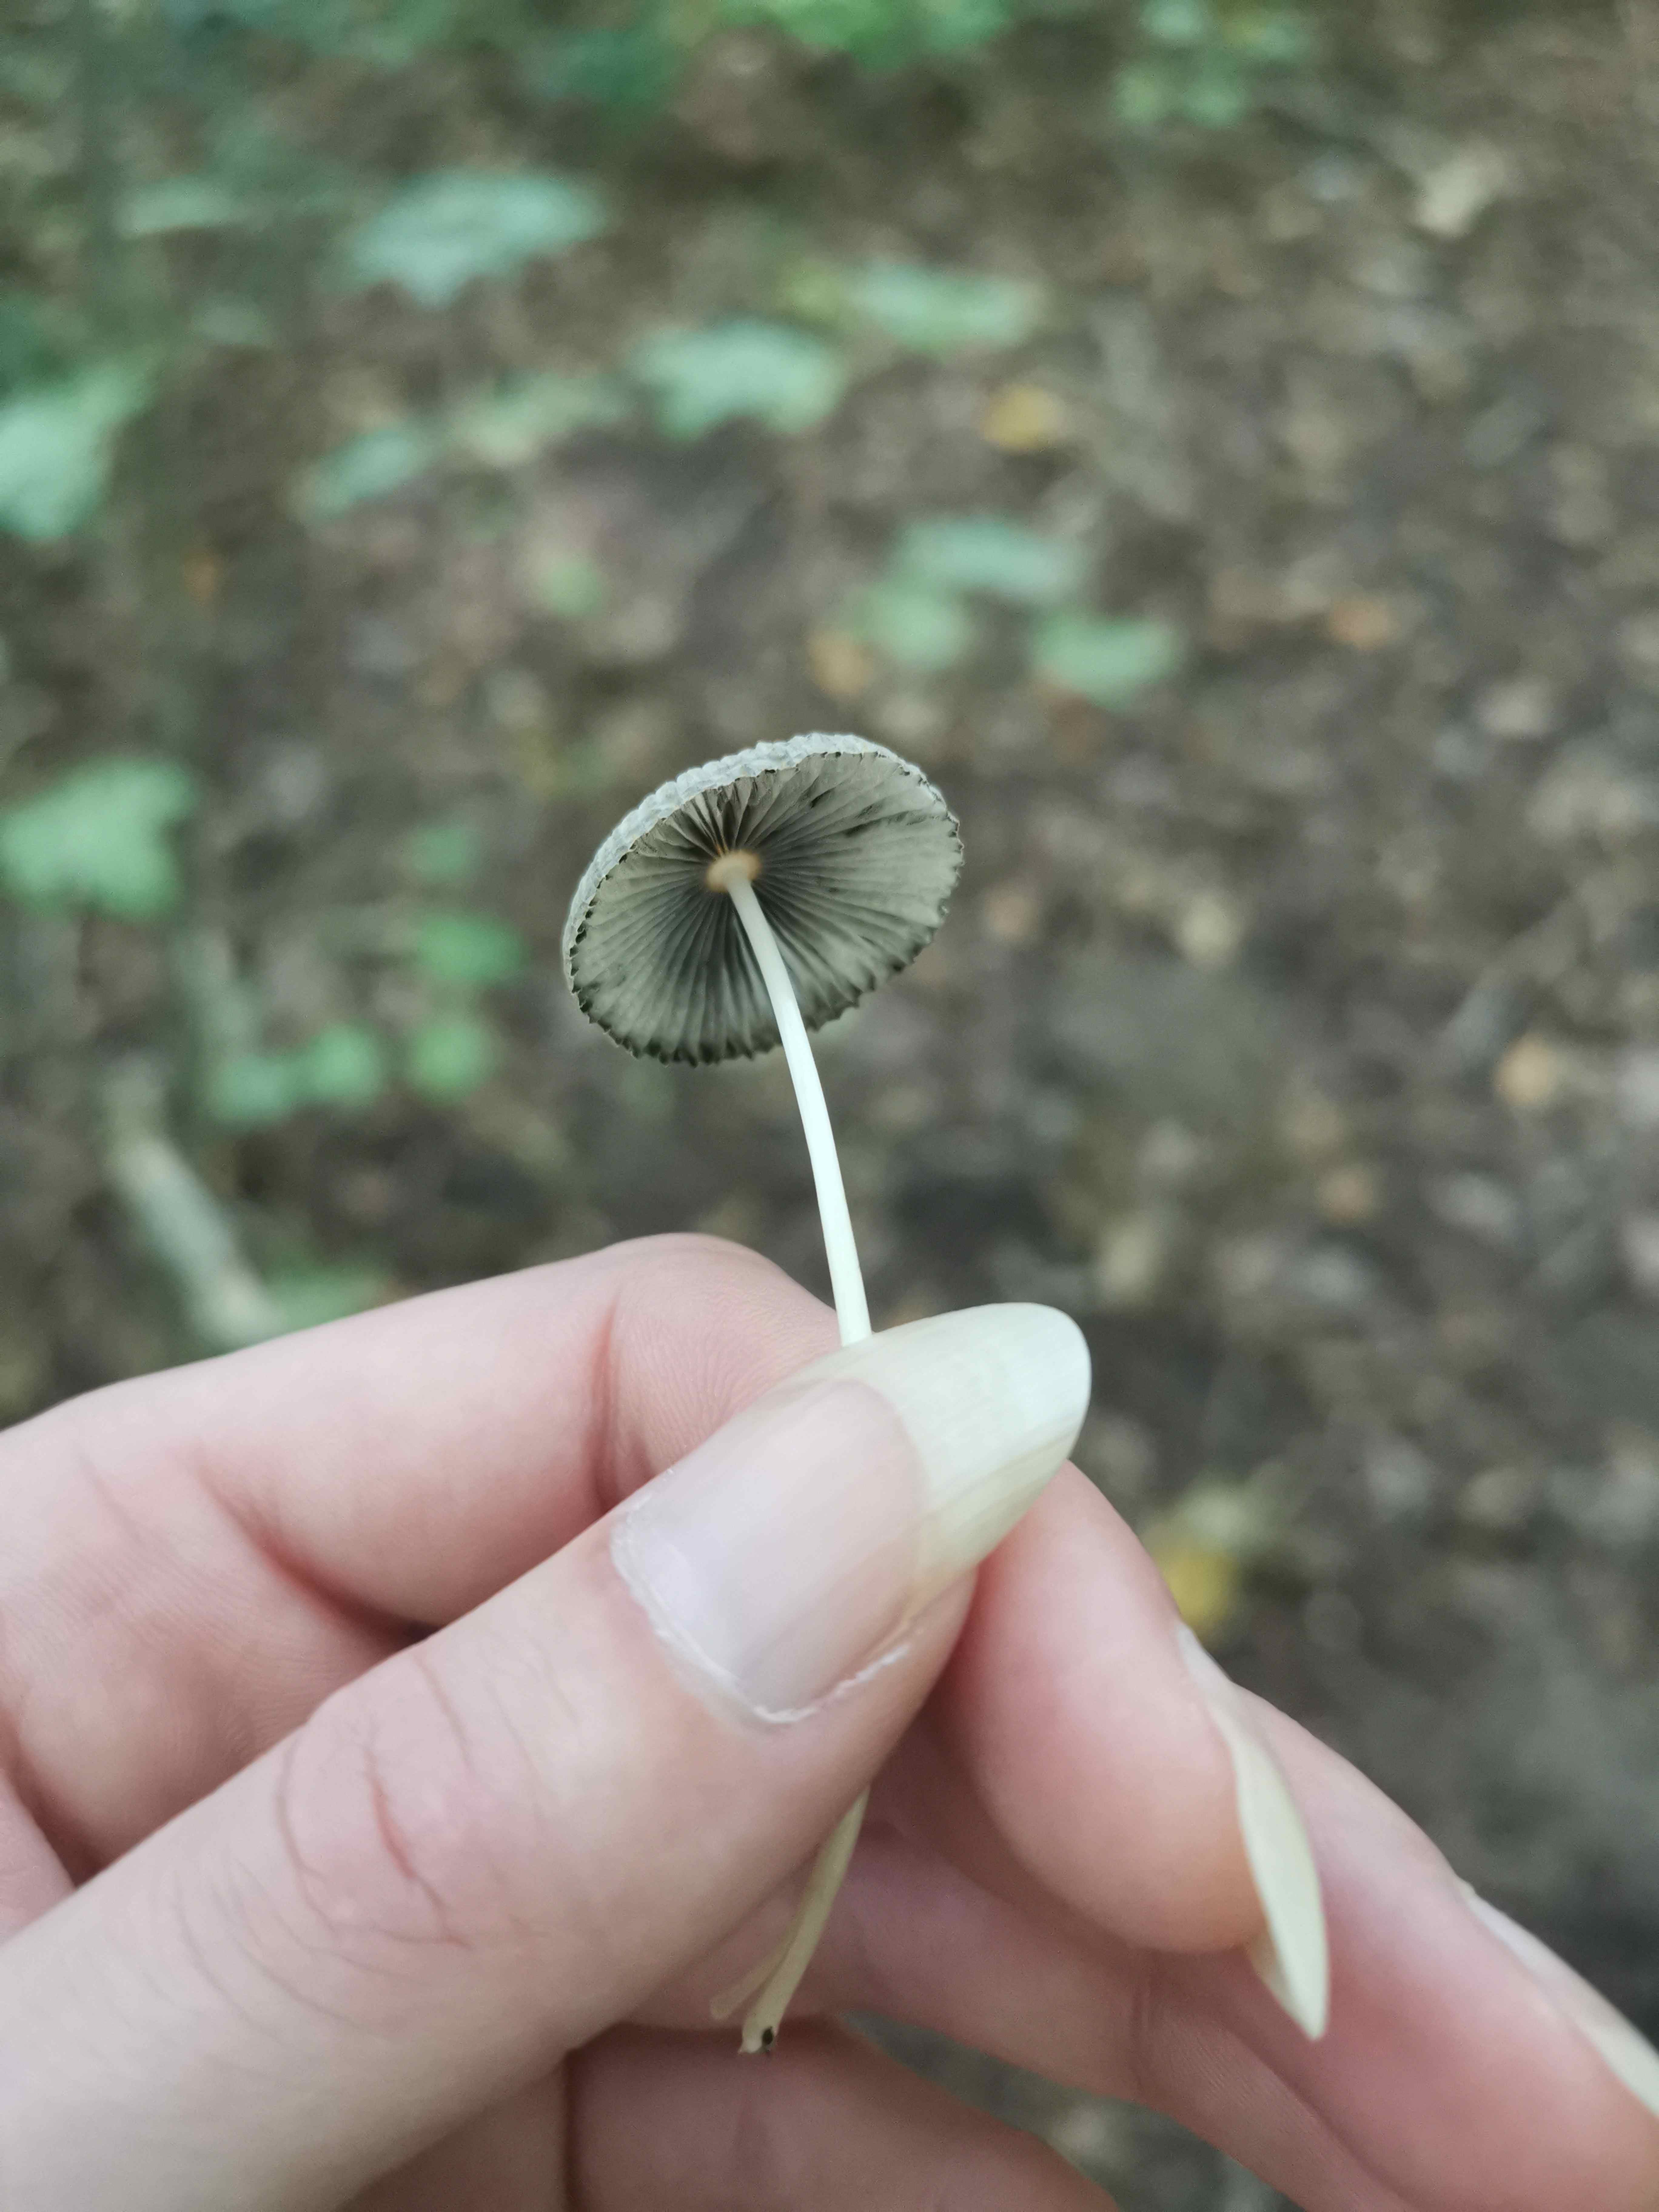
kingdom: Fungi
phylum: Basidiomycota
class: Agaricomycetes
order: Agaricales
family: Psathyrellaceae
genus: Parasola
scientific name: Parasola
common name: hjulhat
